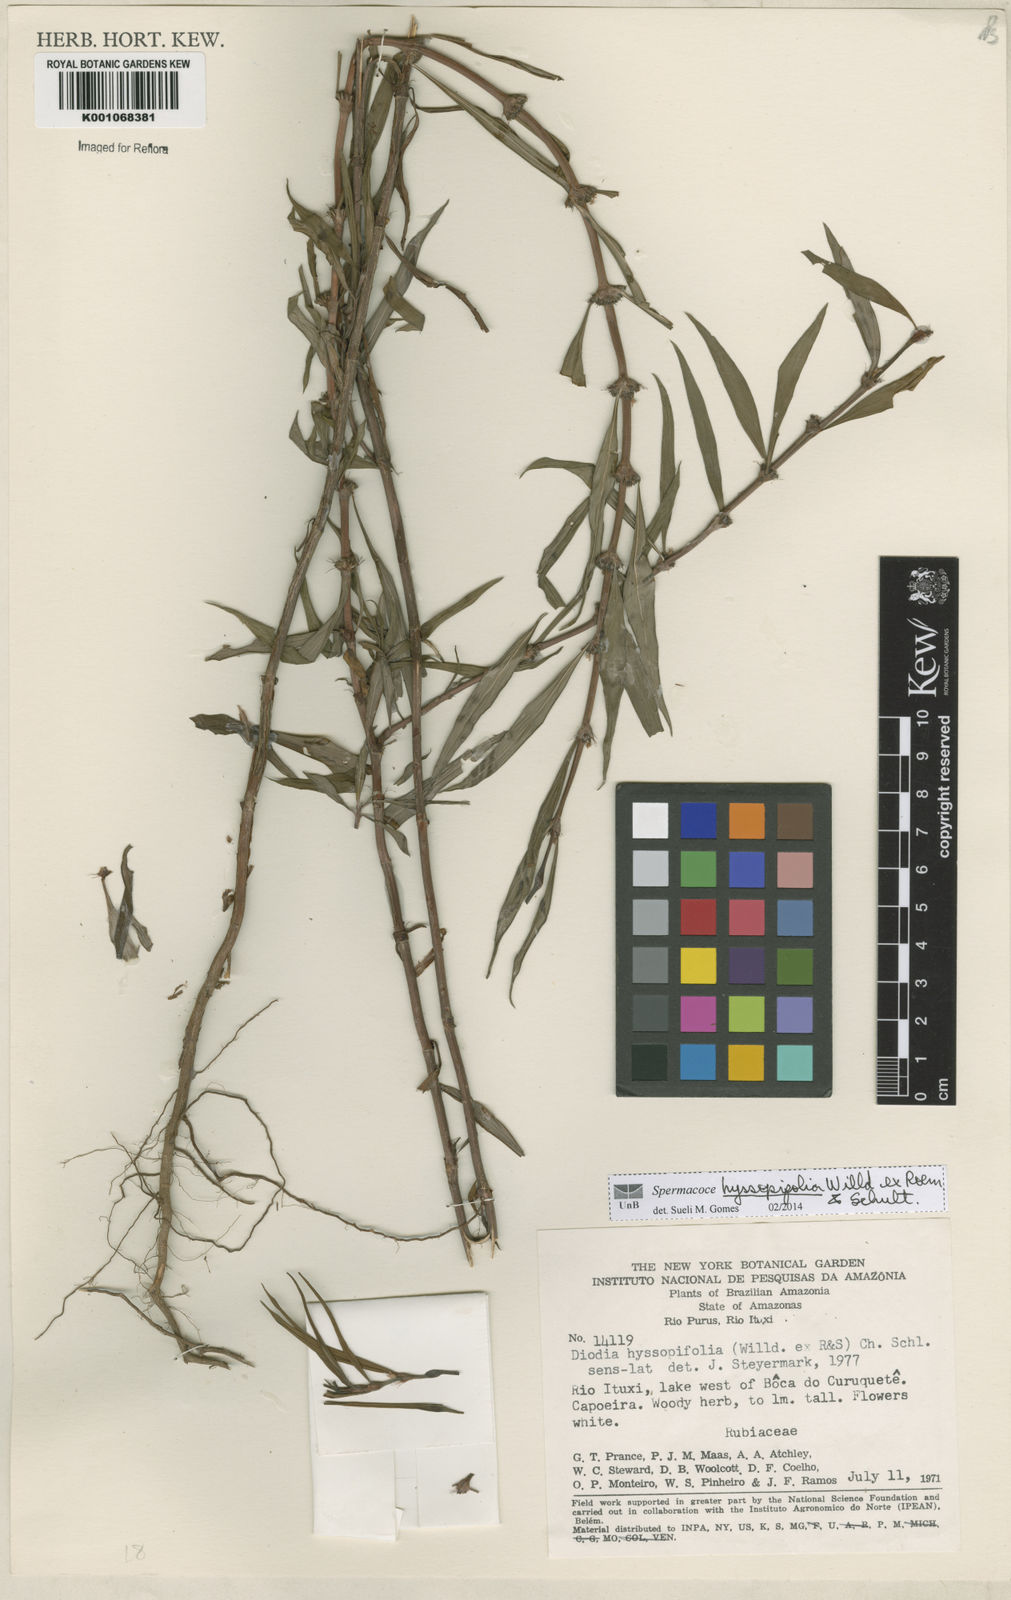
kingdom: Plantae
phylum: Tracheophyta
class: Magnoliopsida
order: Gentianales
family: Rubiaceae
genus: Spermacoce
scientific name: Spermacoce
